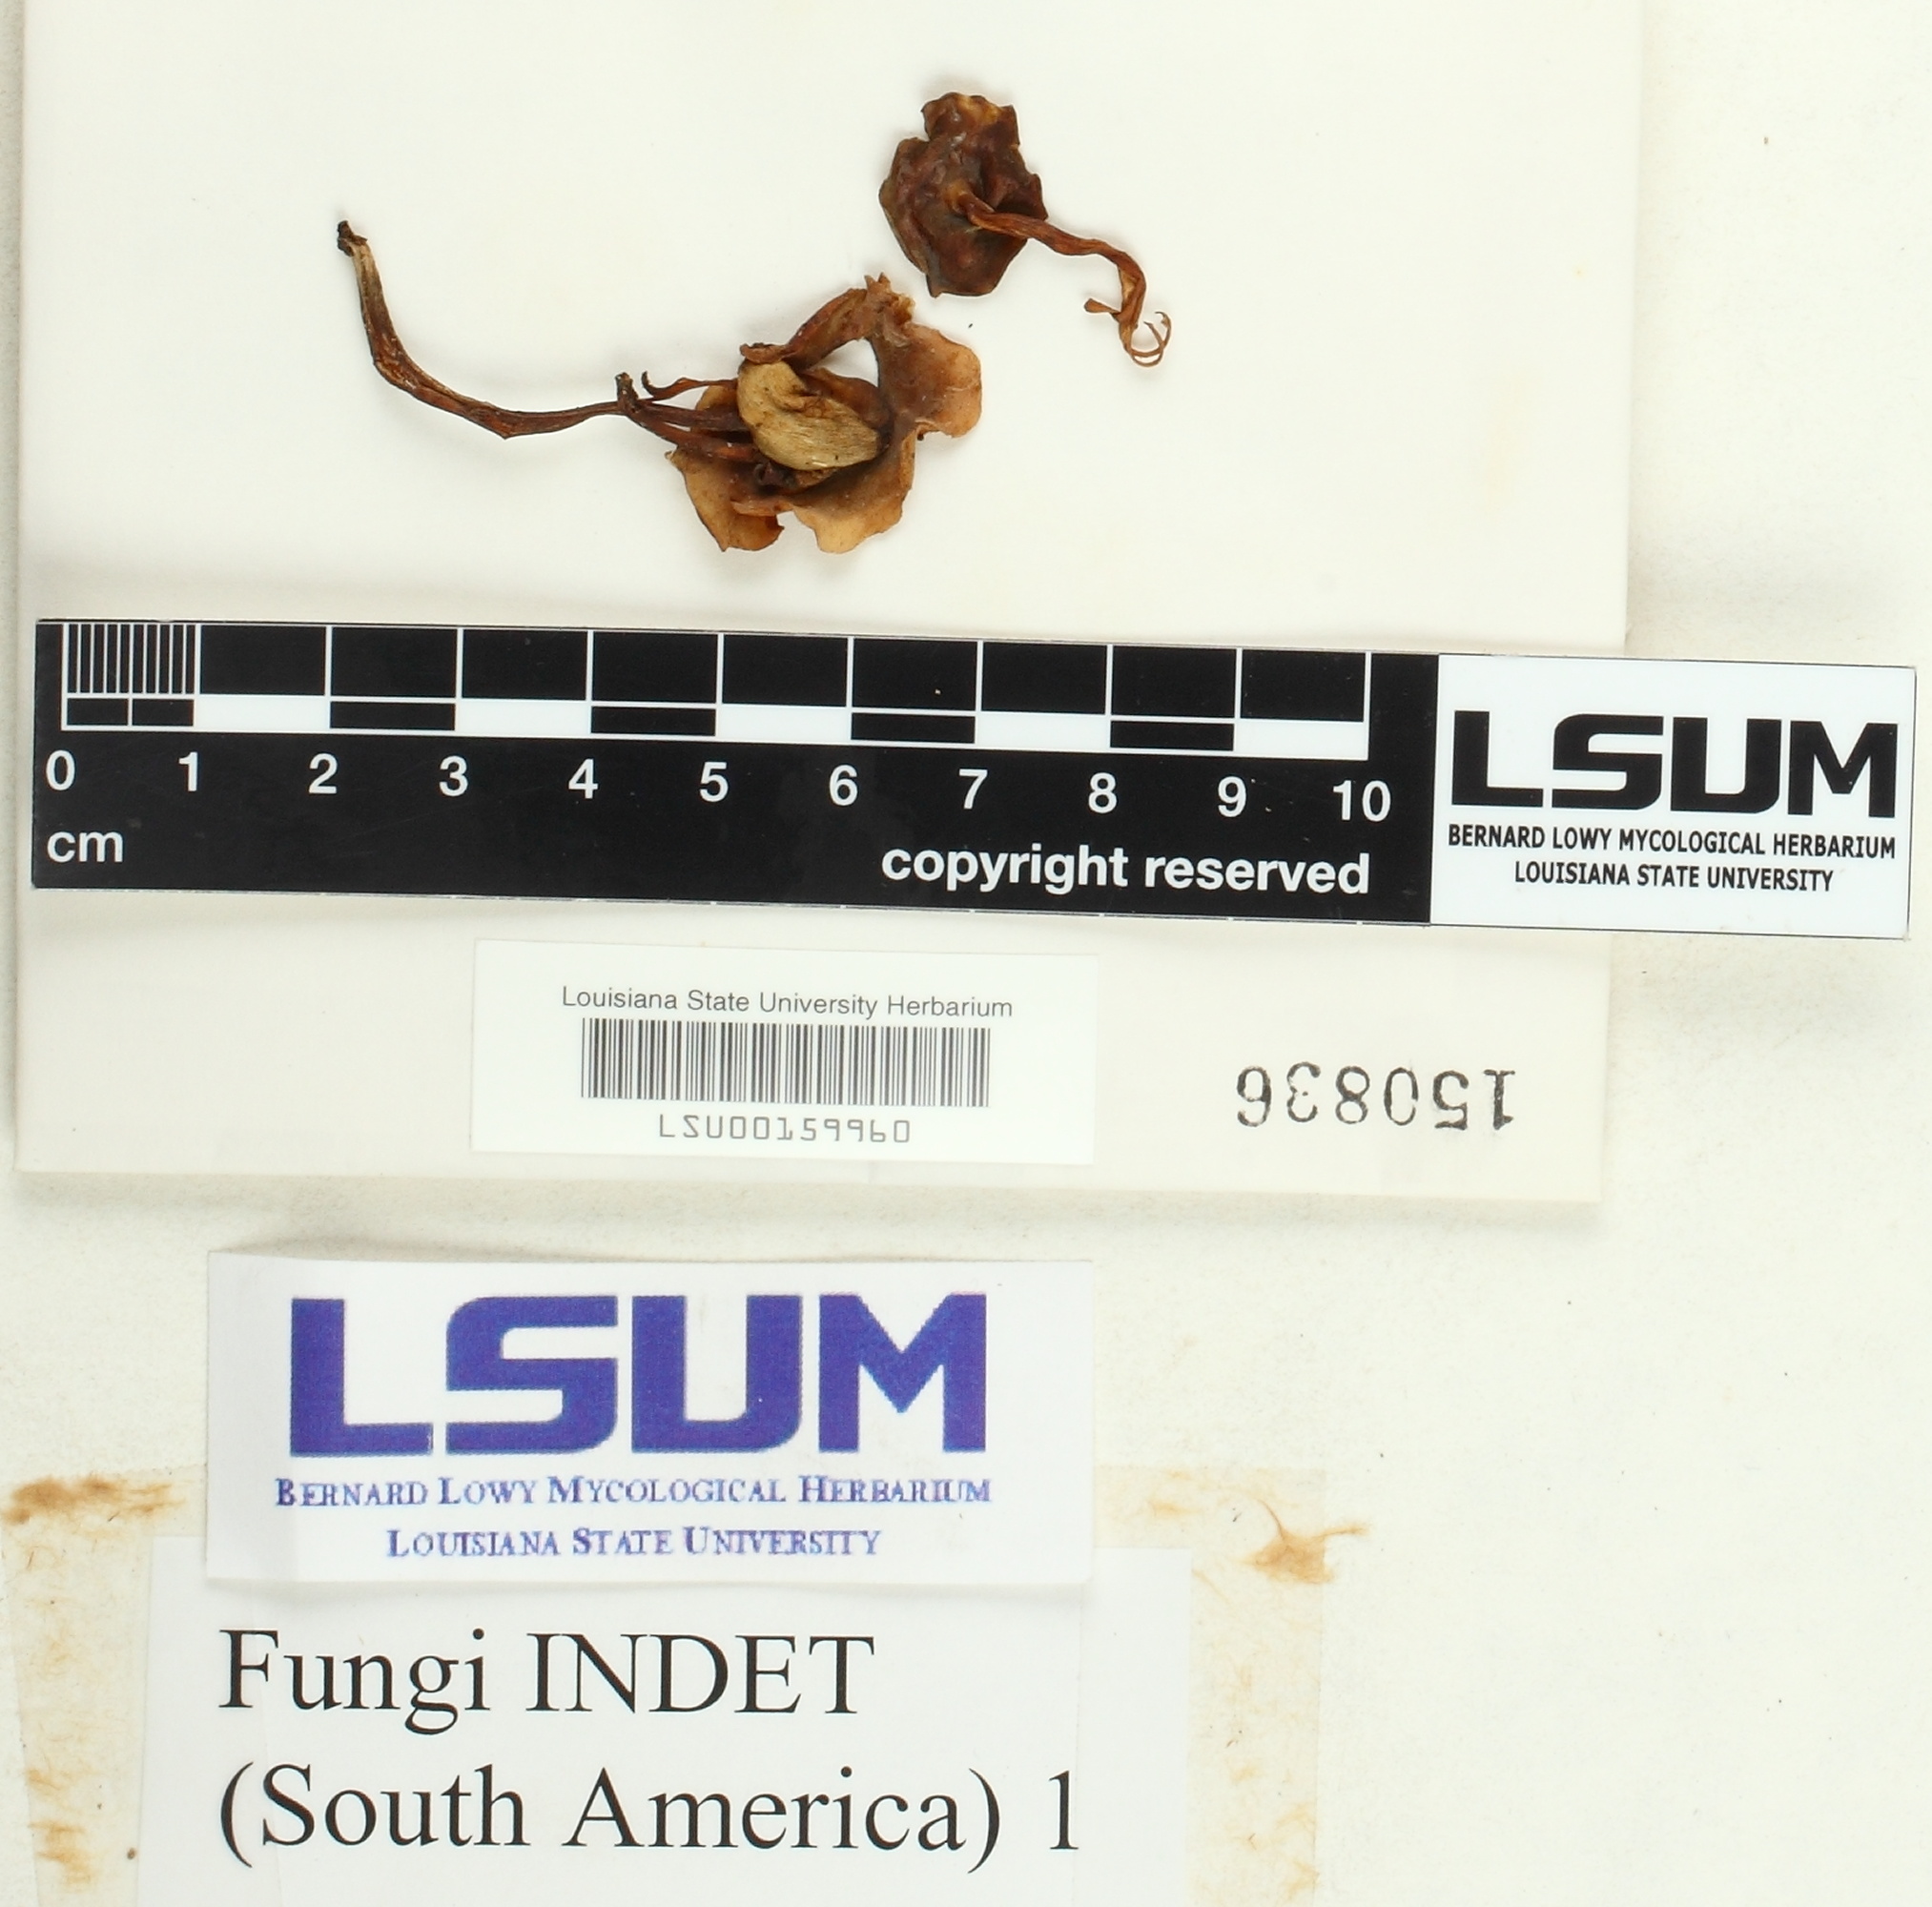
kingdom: Fungi
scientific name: Fungi
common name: Fungi
